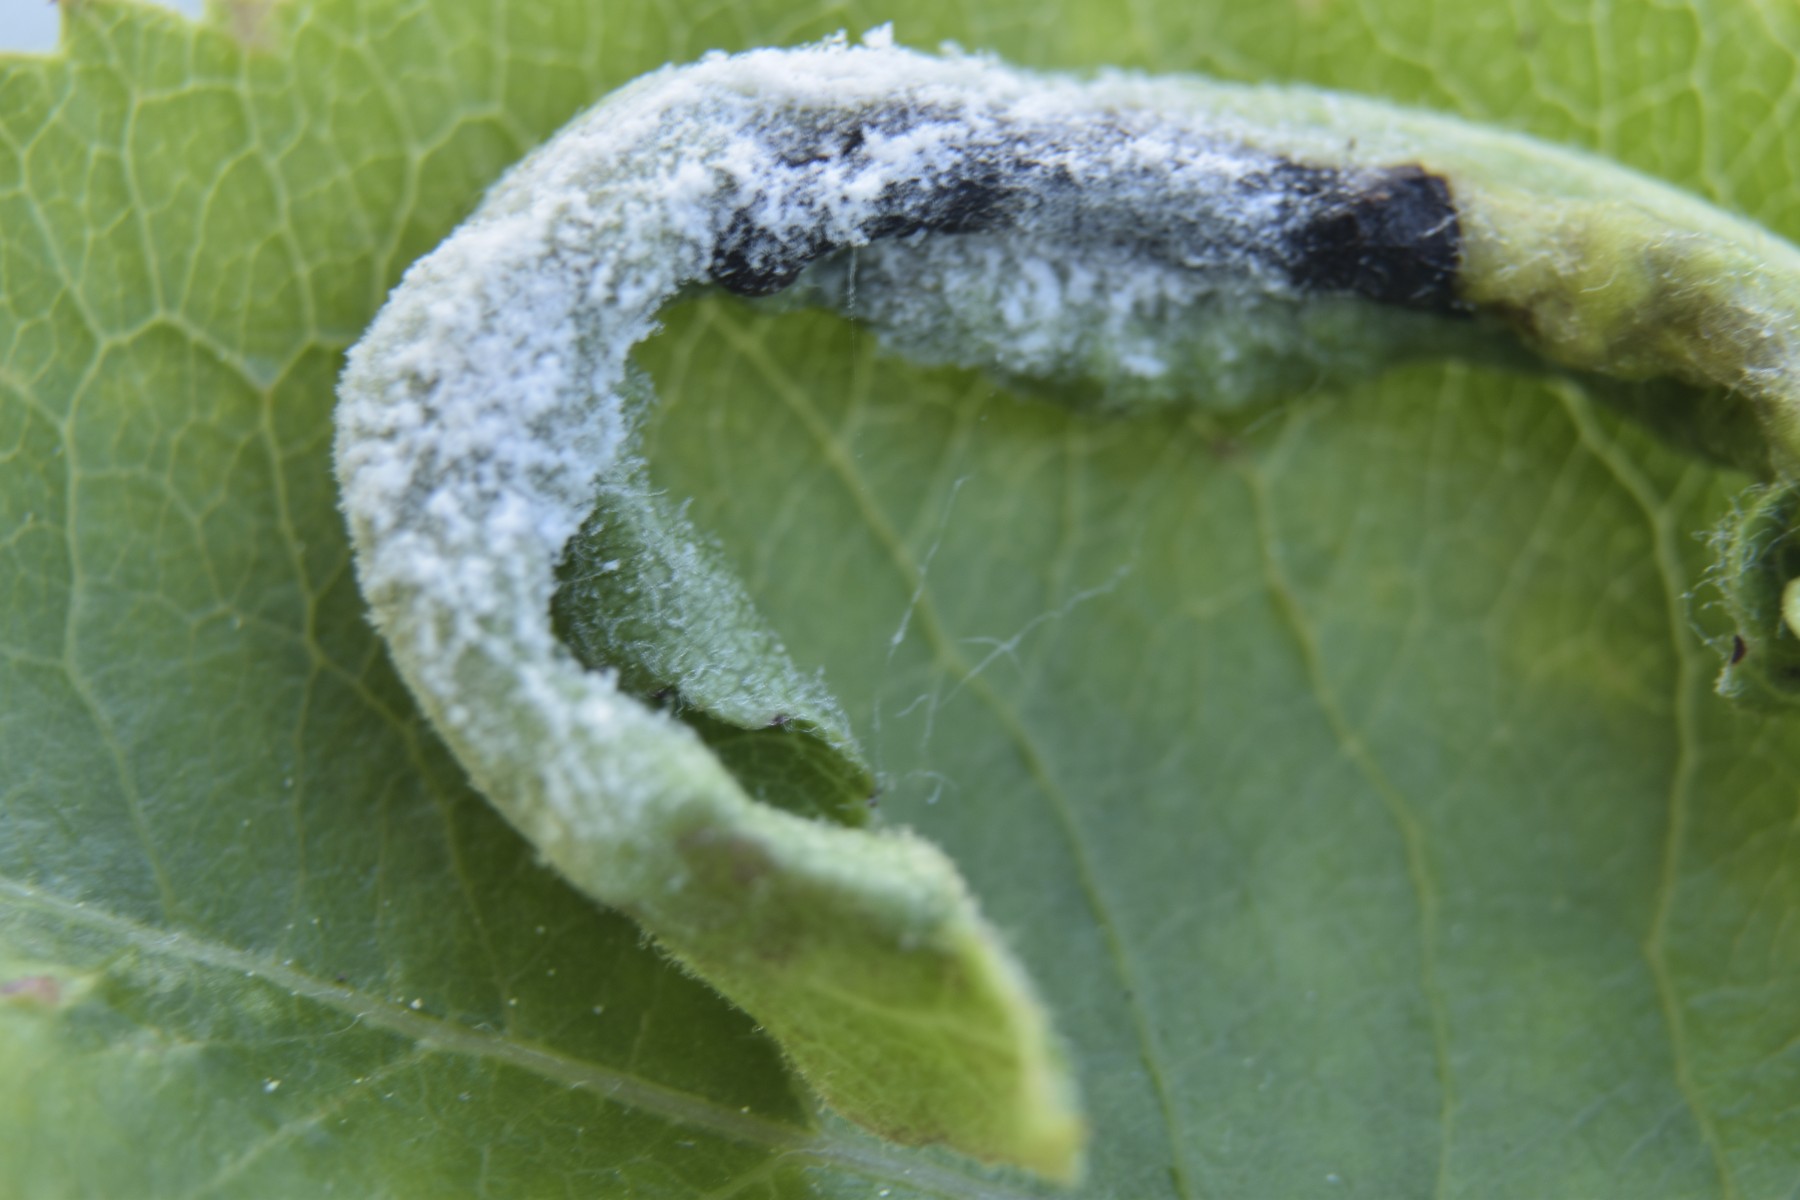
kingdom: Fungi
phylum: Ascomycota
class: Leotiomycetes
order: Helotiales
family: Erysiphaceae
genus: Podosphaera
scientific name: Podosphaera leucotricha
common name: æble-meldug
